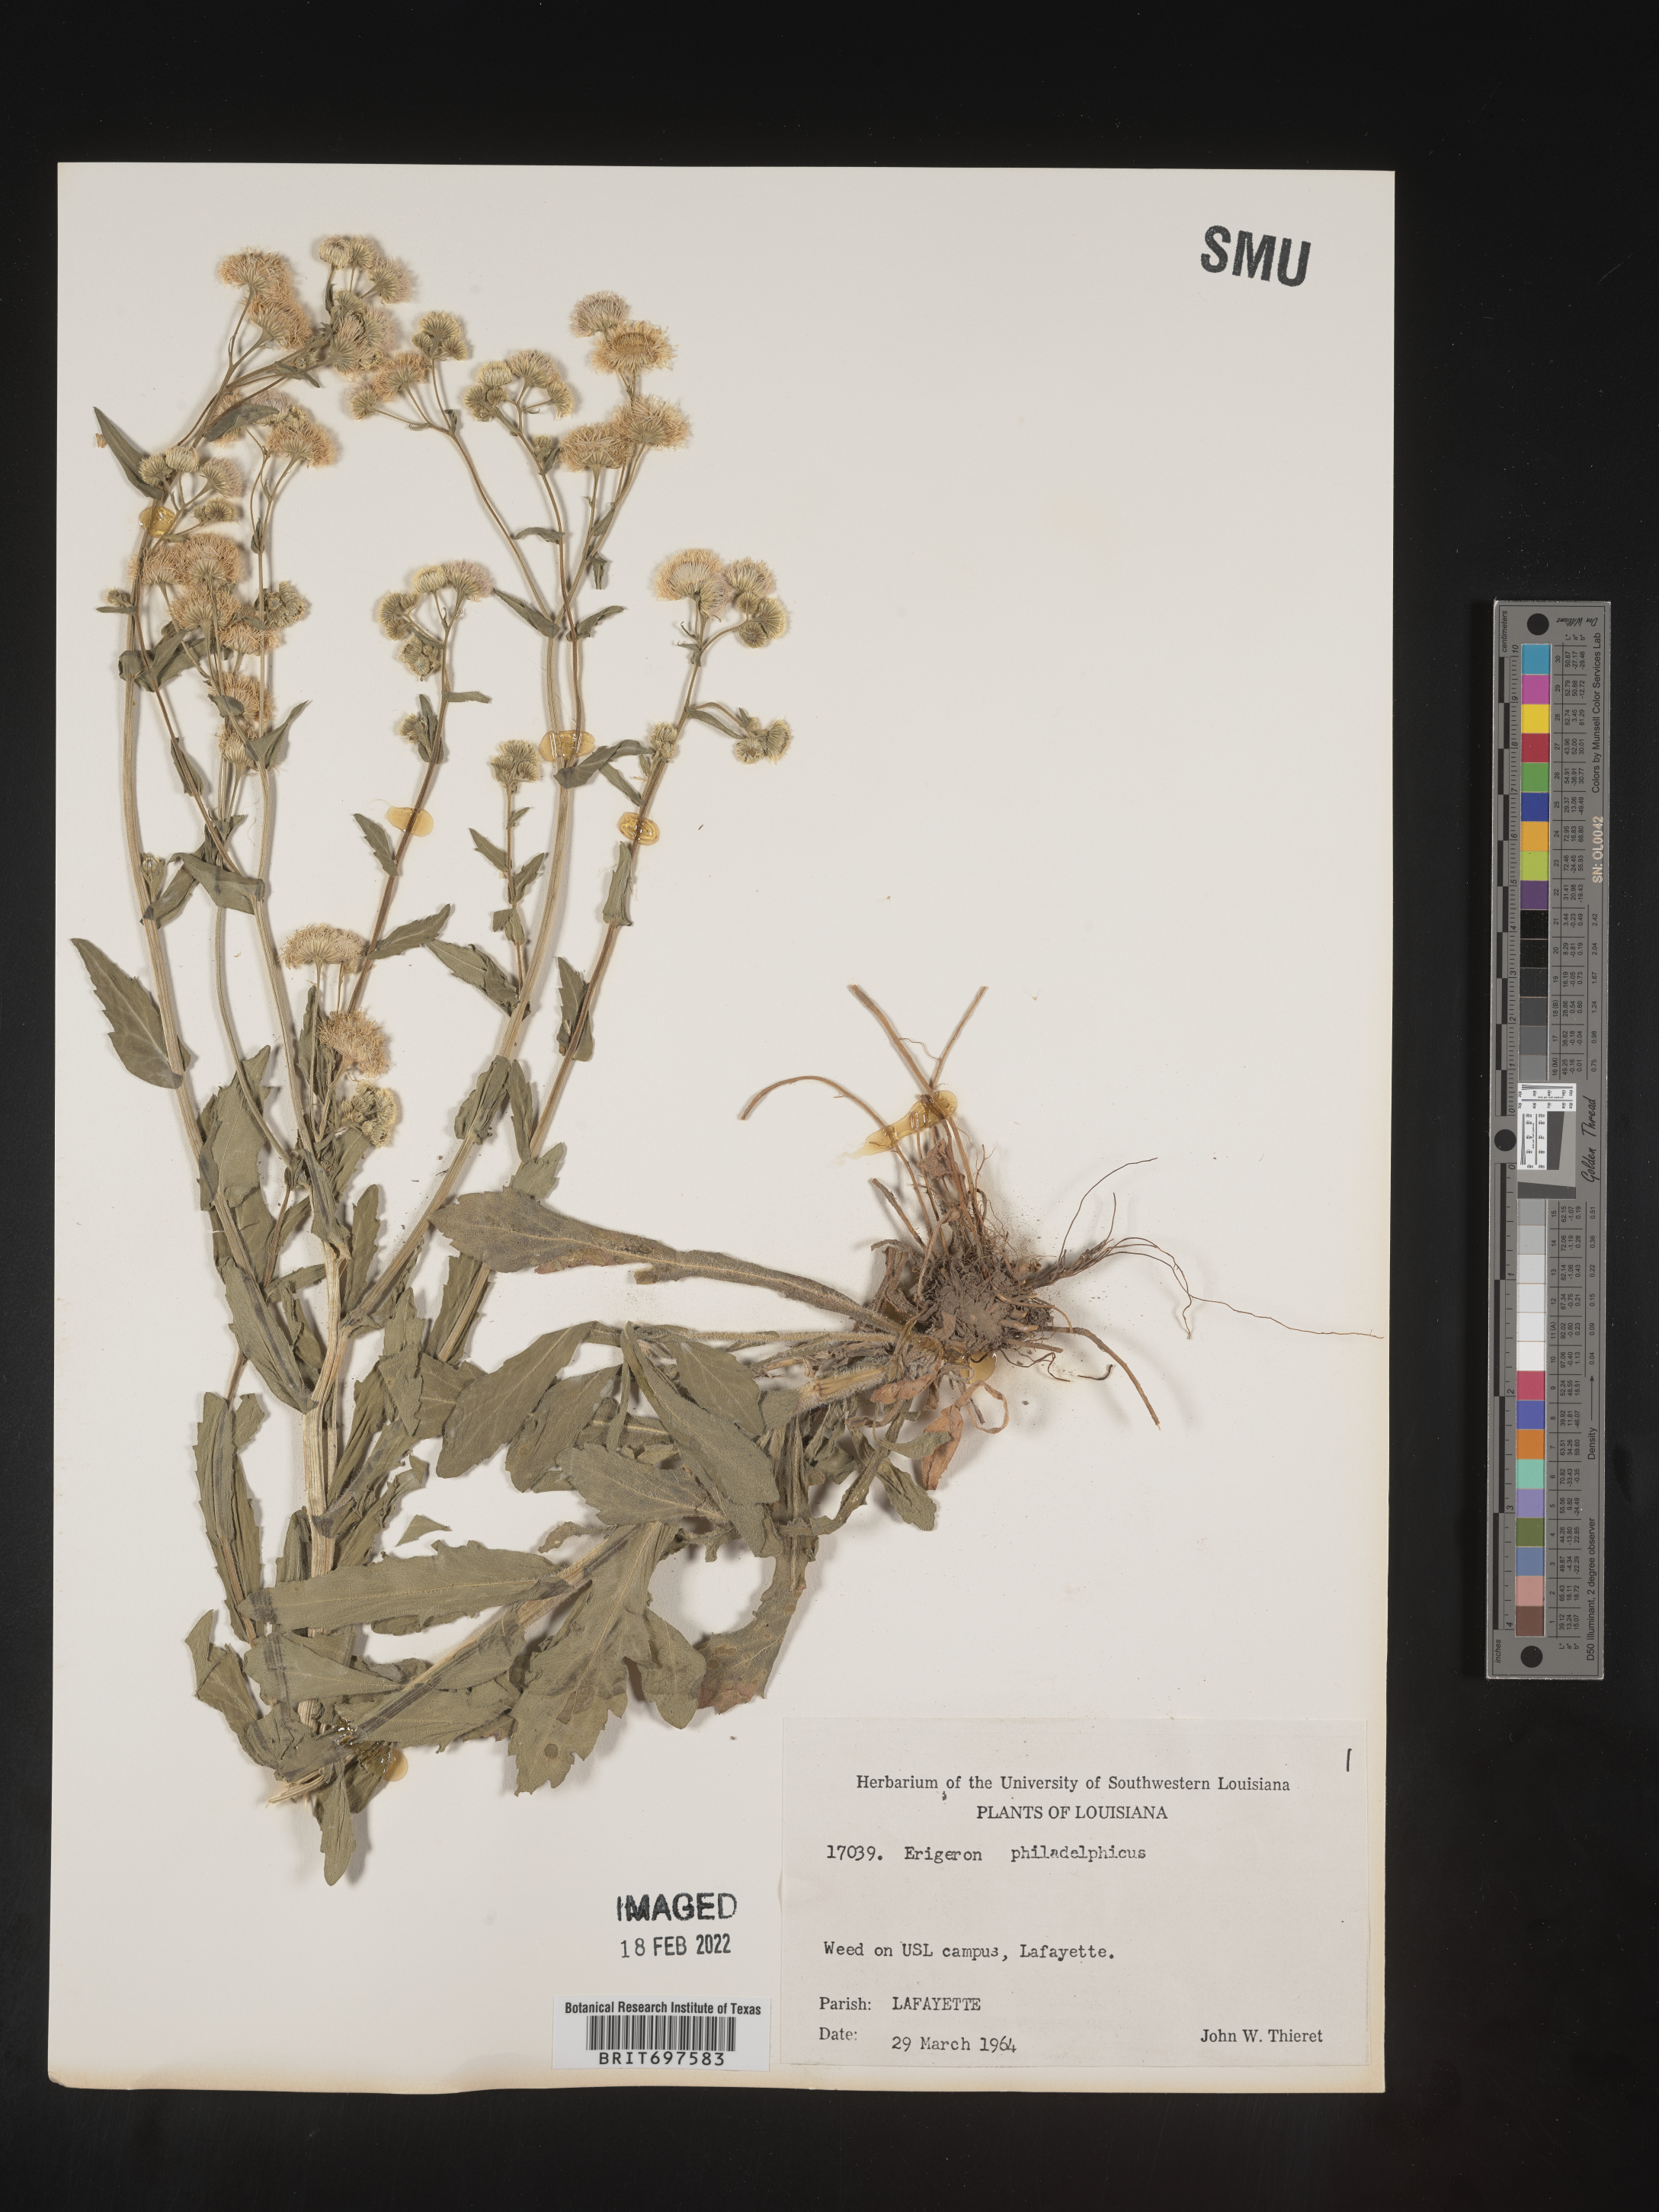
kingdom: Plantae
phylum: Tracheophyta
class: Magnoliopsida
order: Asterales
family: Asteraceae
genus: Erigeron
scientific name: Erigeron philadelphicus
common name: Robin's-plantain
